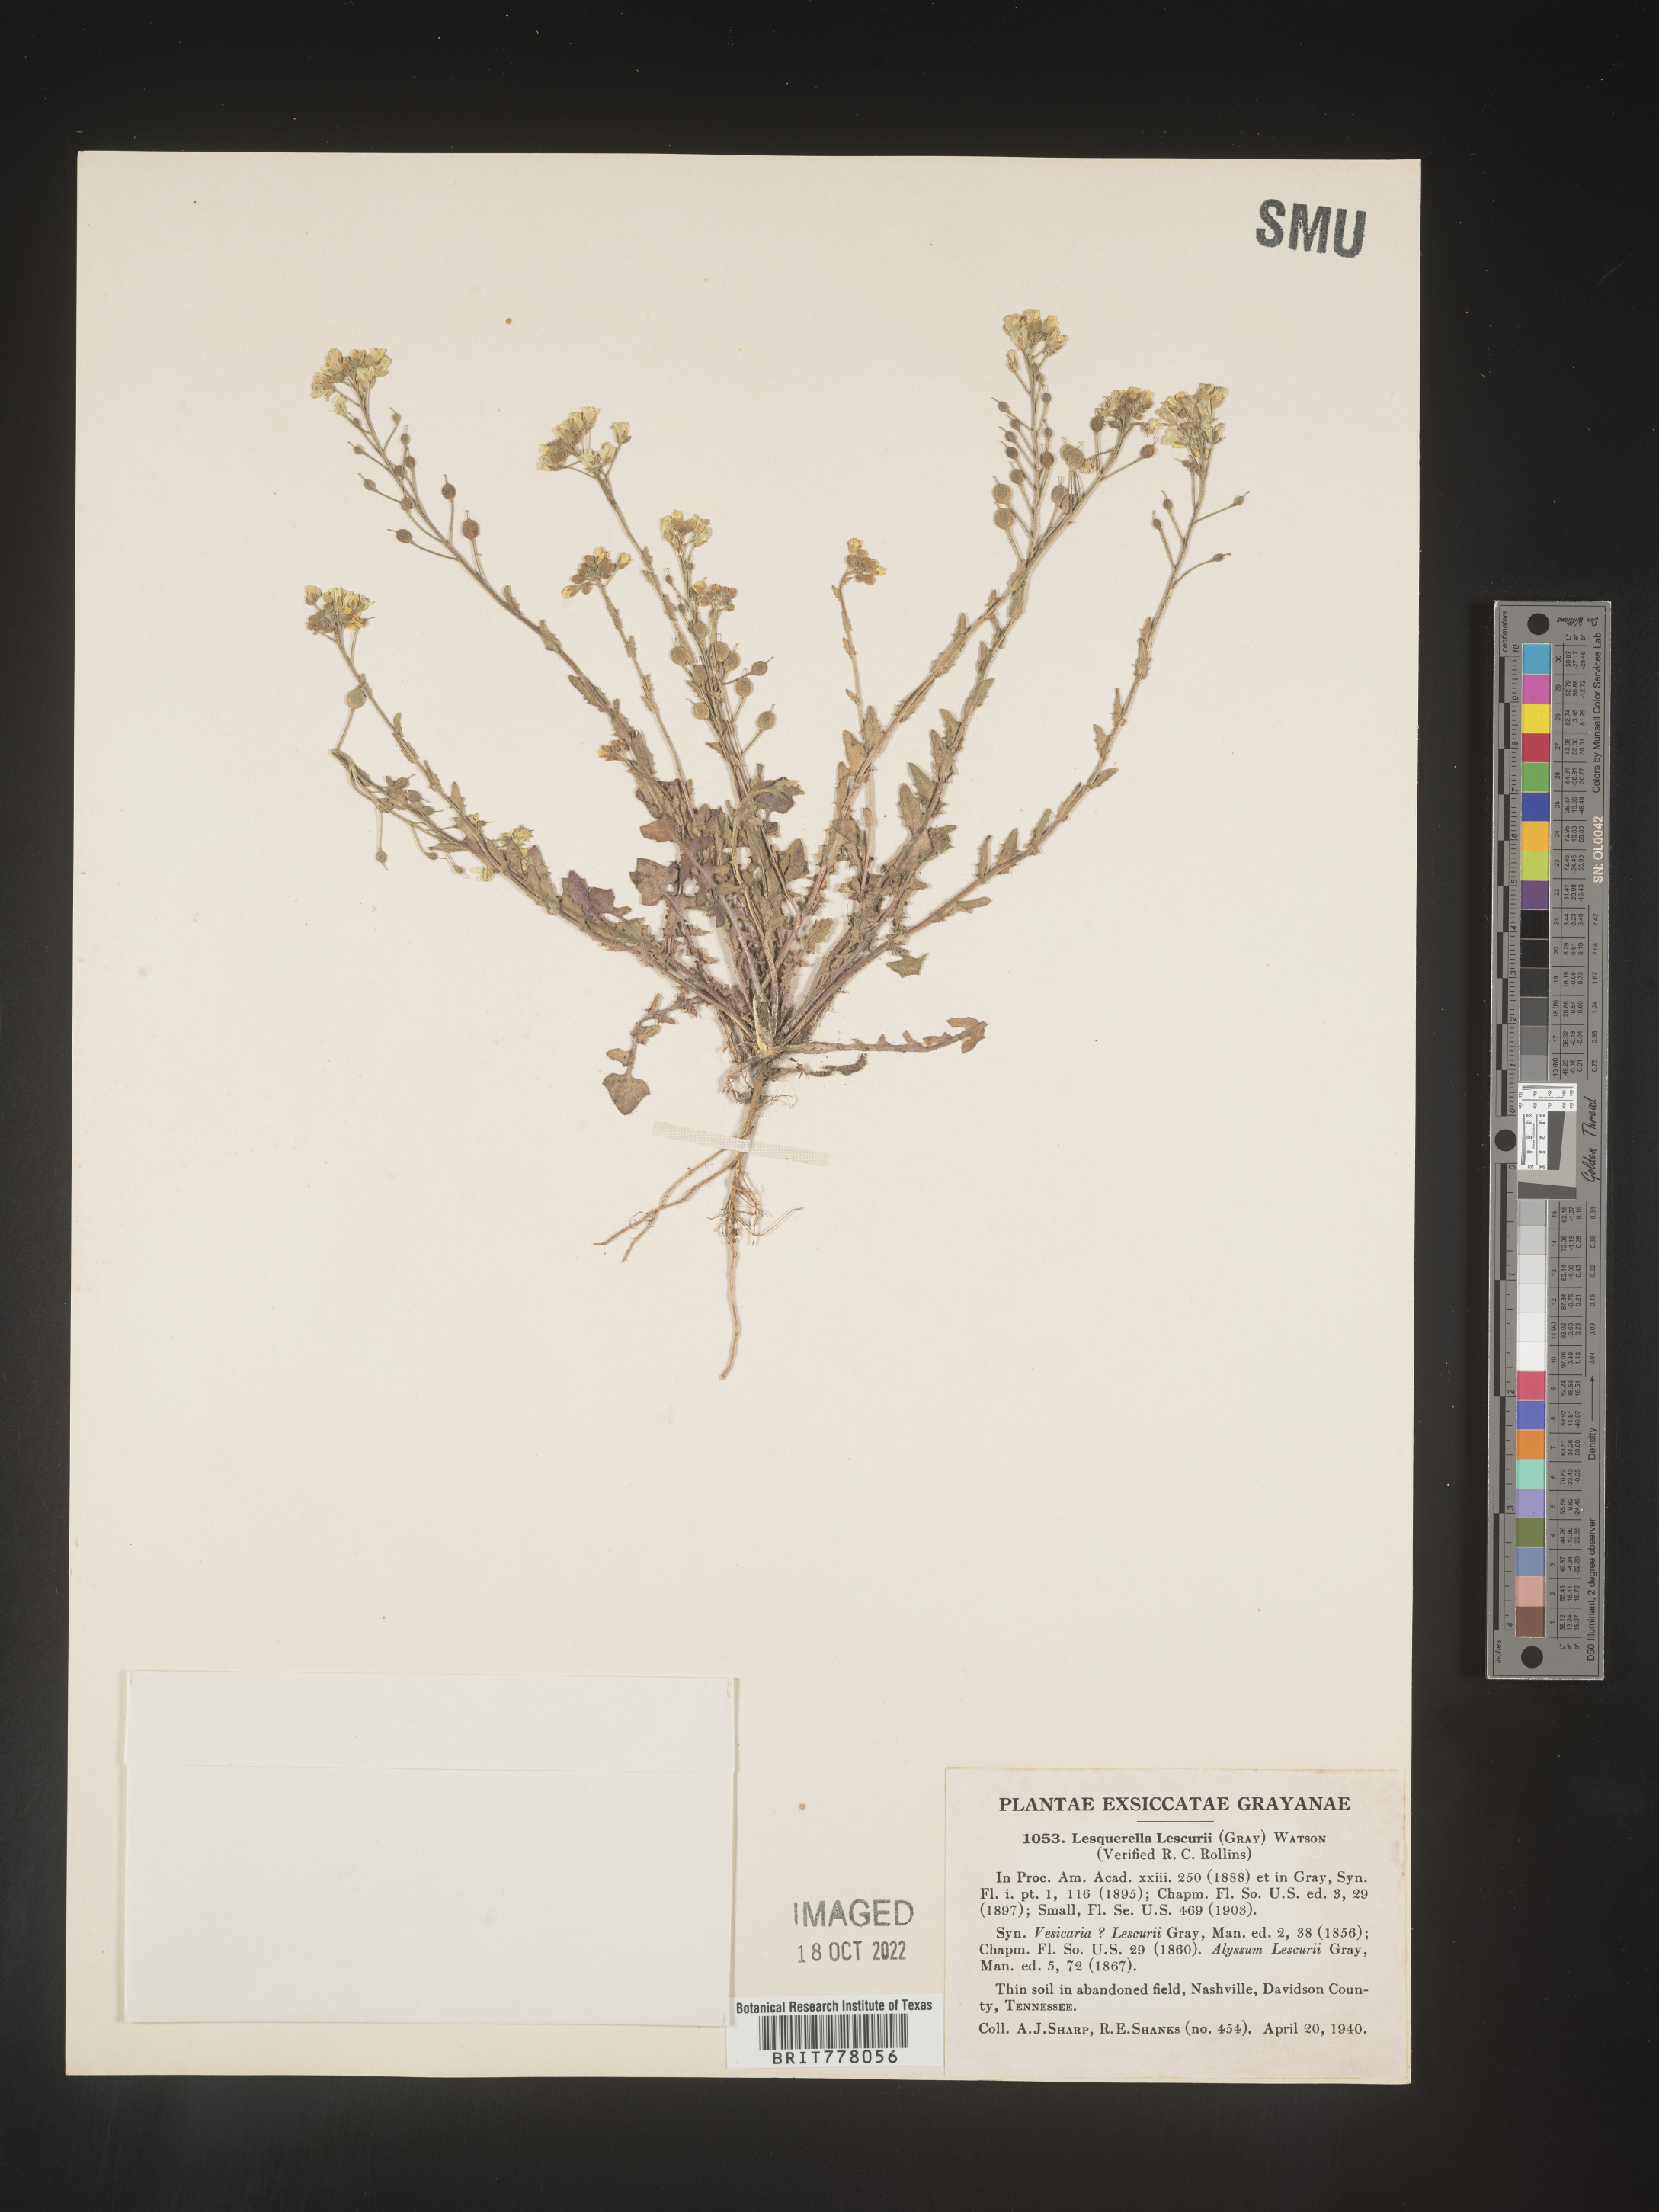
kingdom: Chromista
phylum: Cercozoa
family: Psammonobiotidae
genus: Lesquerella
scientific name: Lesquerella
